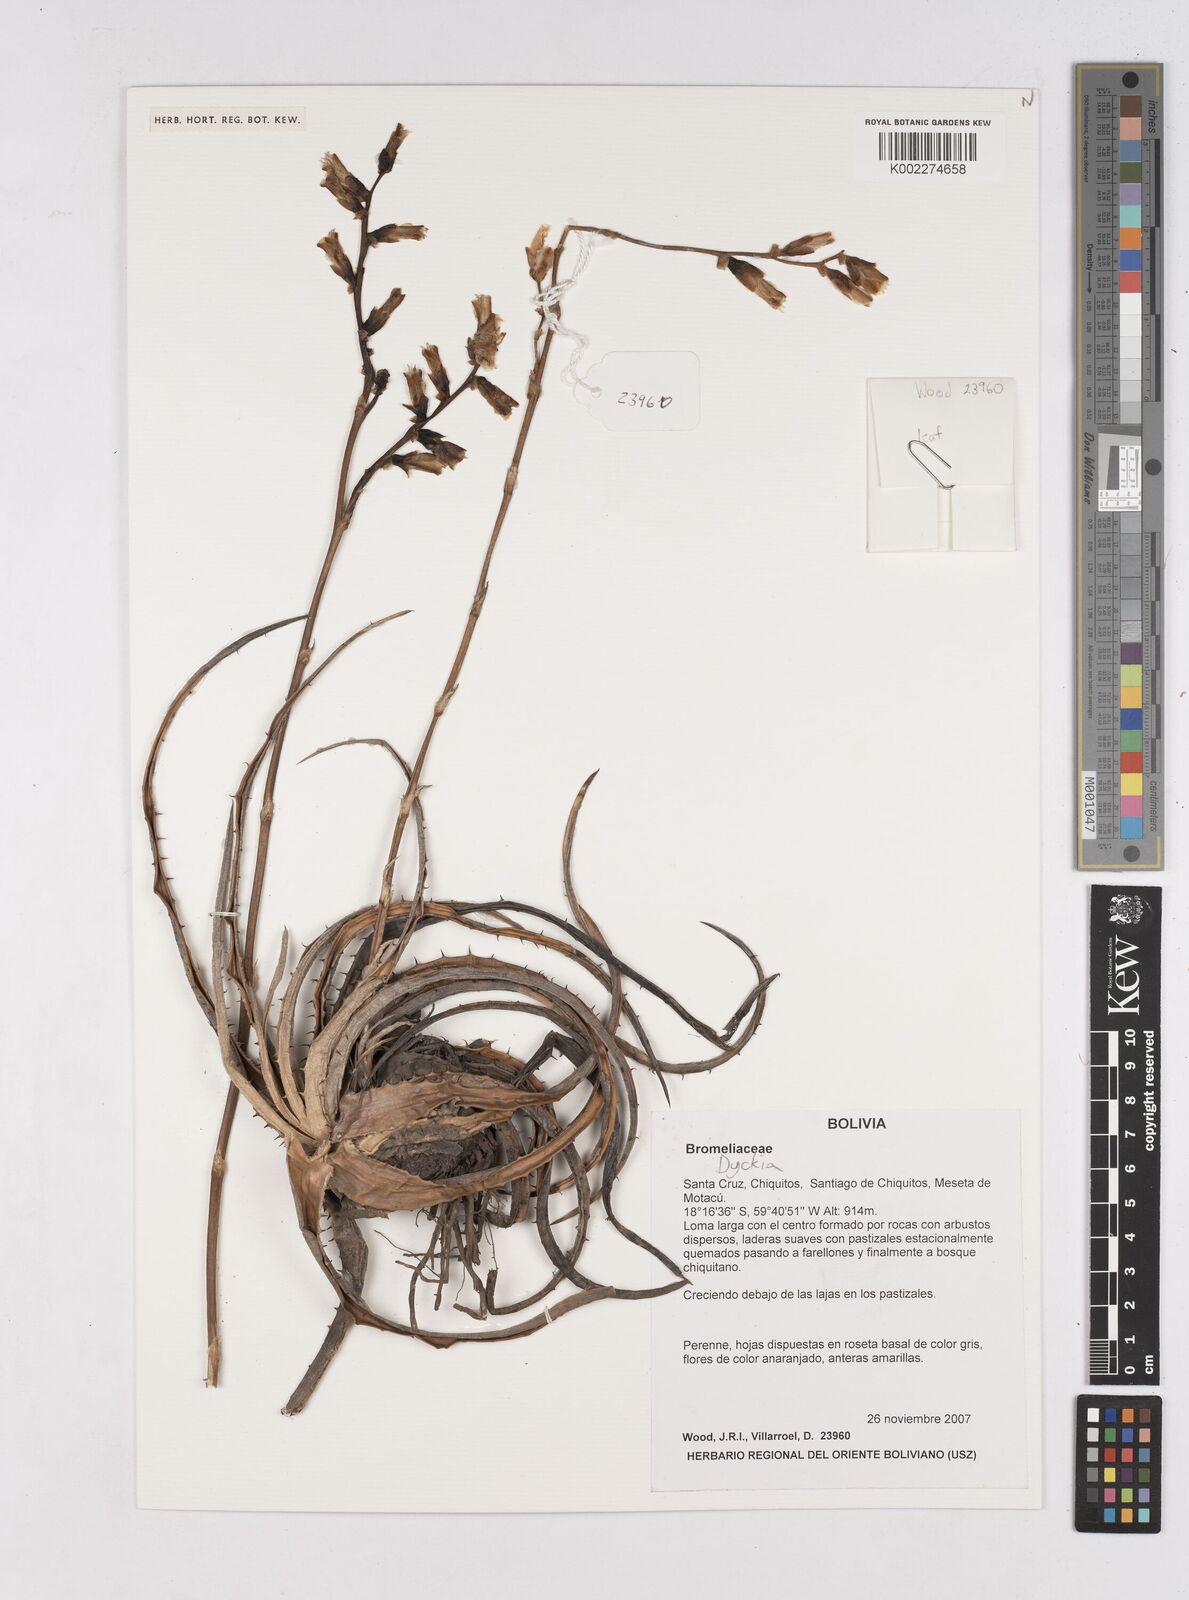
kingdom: Plantae
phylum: Tracheophyta
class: Liliopsida
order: Poales
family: Bromeliaceae
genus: Dyckia
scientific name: Dyckia
